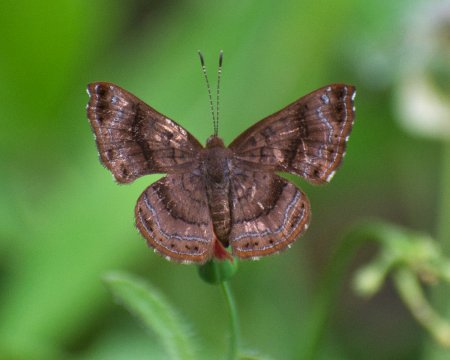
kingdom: Animalia
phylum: Arthropoda
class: Insecta
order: Lepidoptera
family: Lycaenidae
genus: Emesis
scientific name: Emesis fulmen
